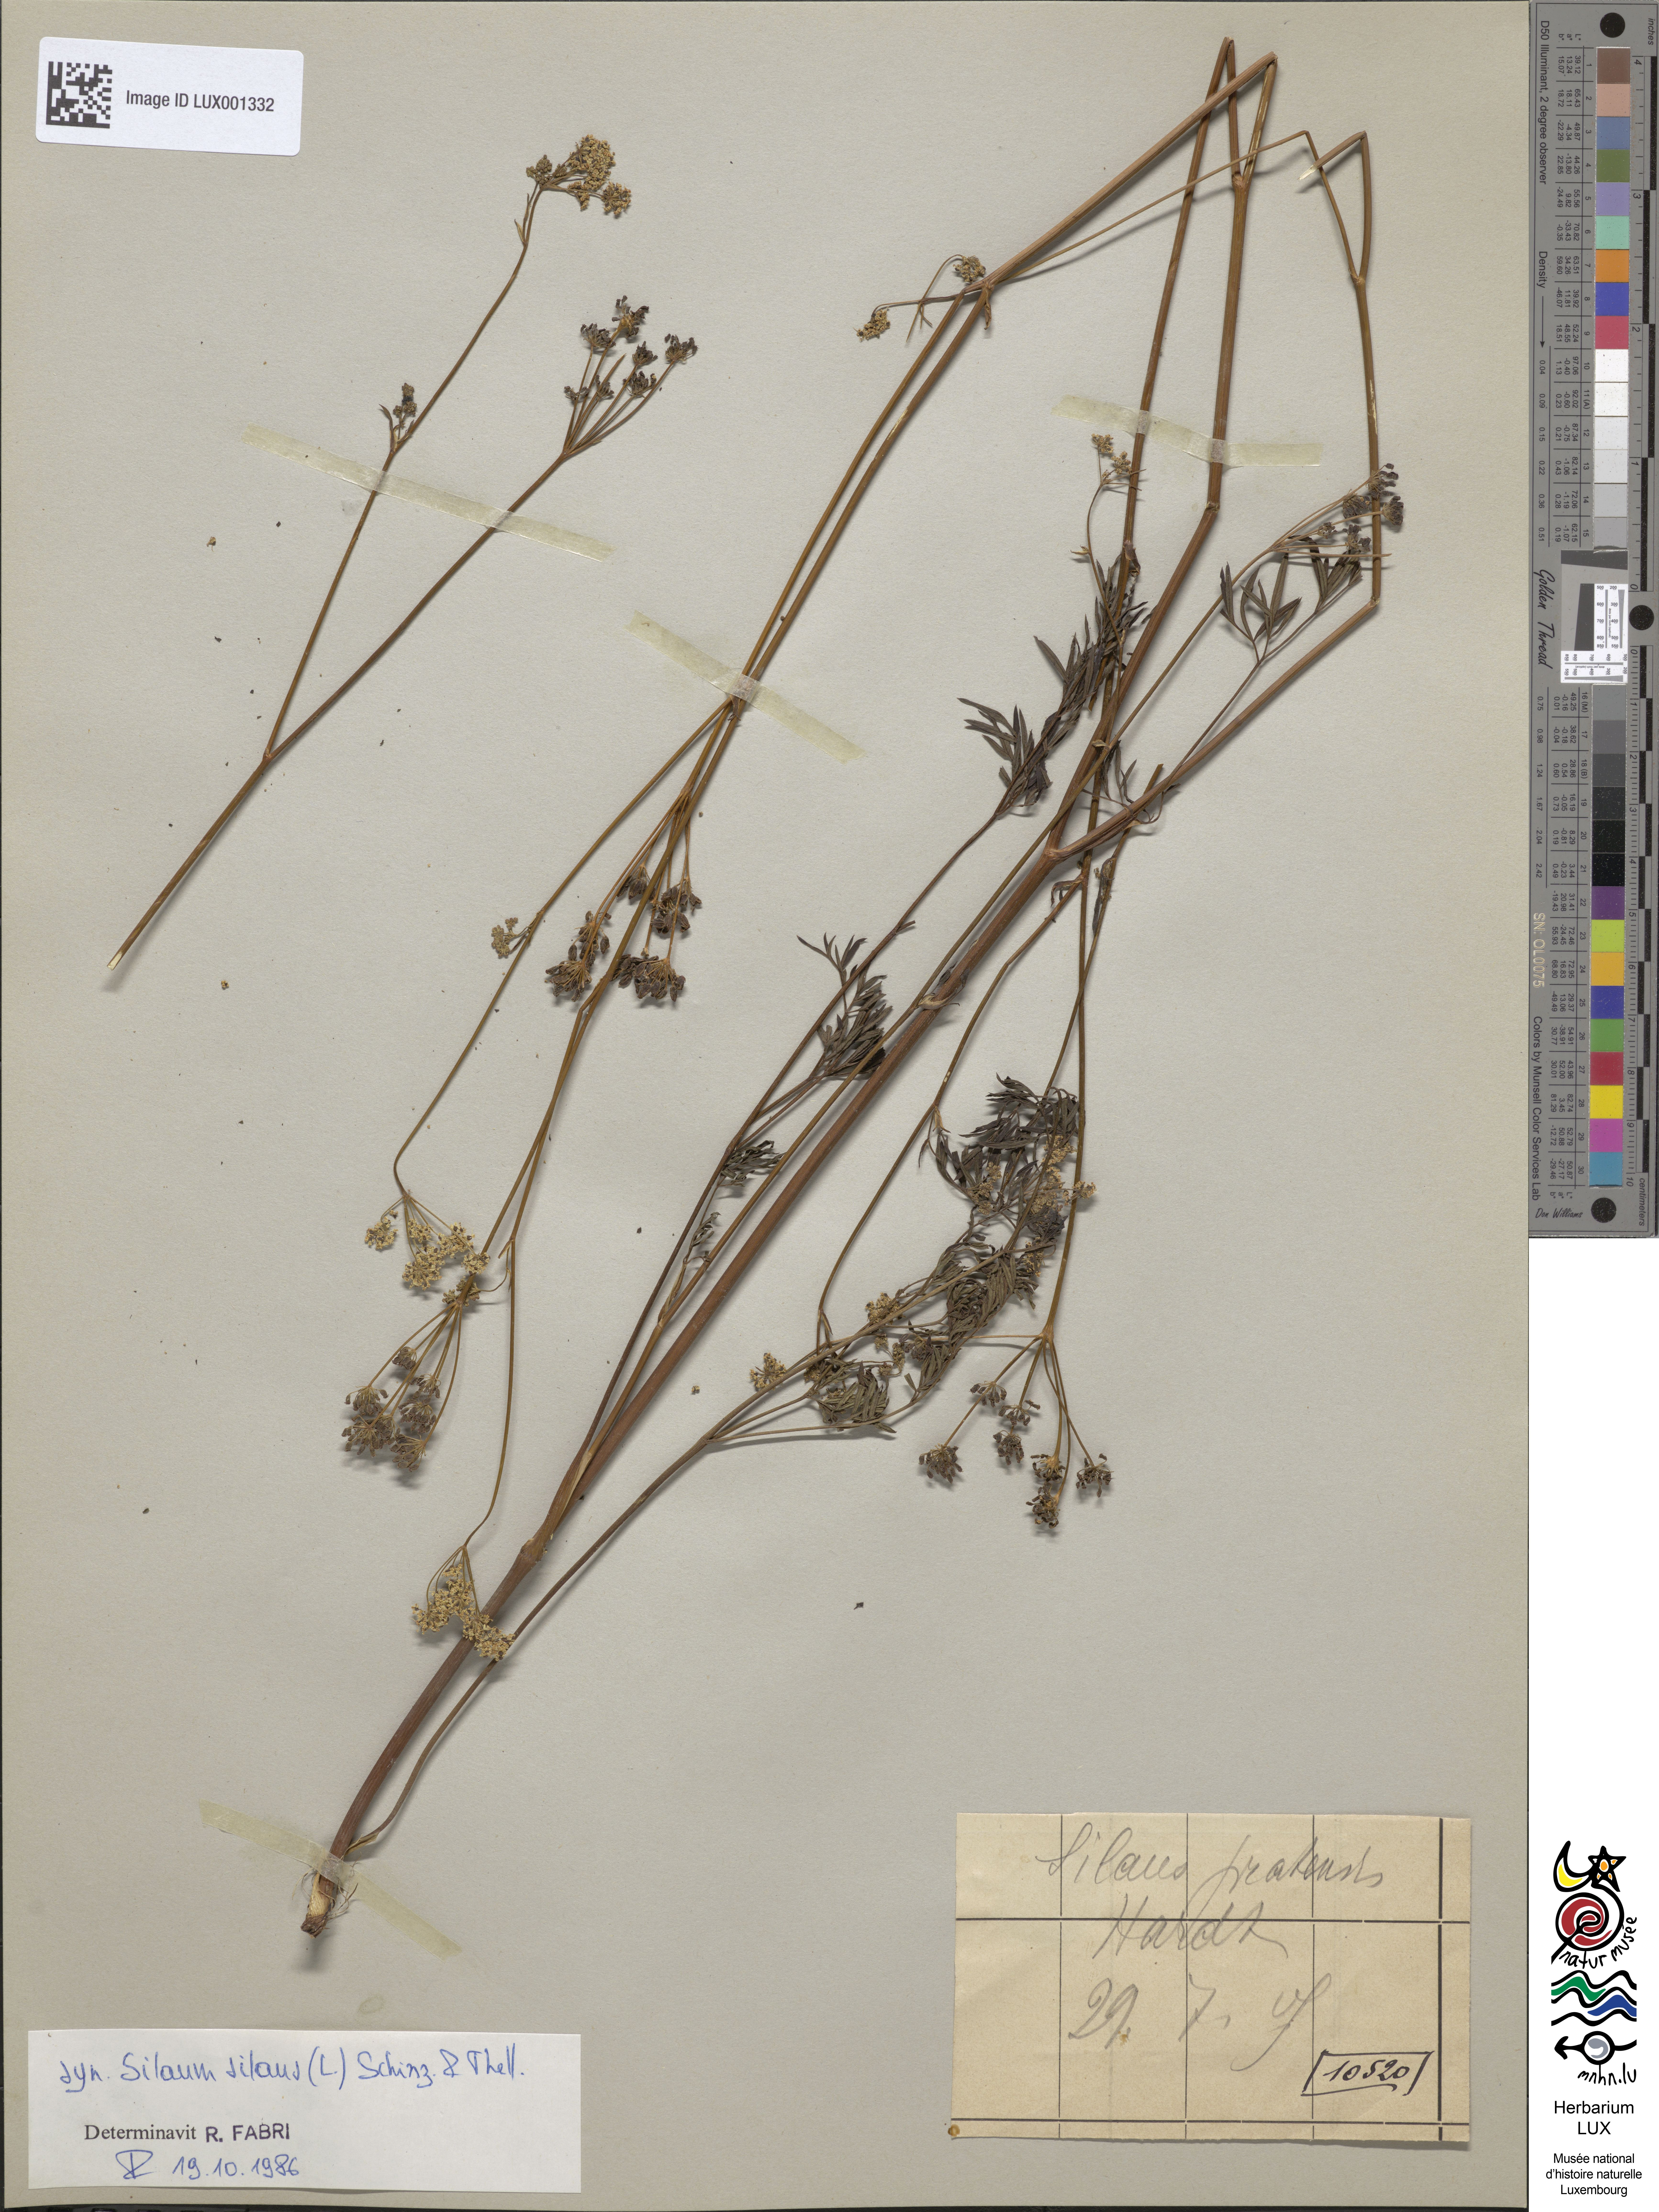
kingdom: Plantae
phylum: Tracheophyta
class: Magnoliopsida
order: Apiales
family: Apiaceae
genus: Silaum
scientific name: Silaum silaus
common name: Pepper-saxifrage
